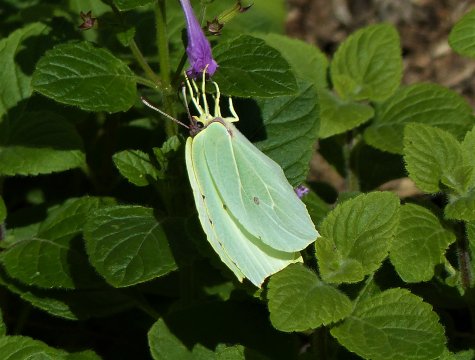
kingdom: Animalia
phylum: Arthropoda
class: Insecta
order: Lepidoptera
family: Pieridae
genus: Gonepteryx
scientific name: Gonepteryx cleopatra
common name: Cleopatra Butterfly
